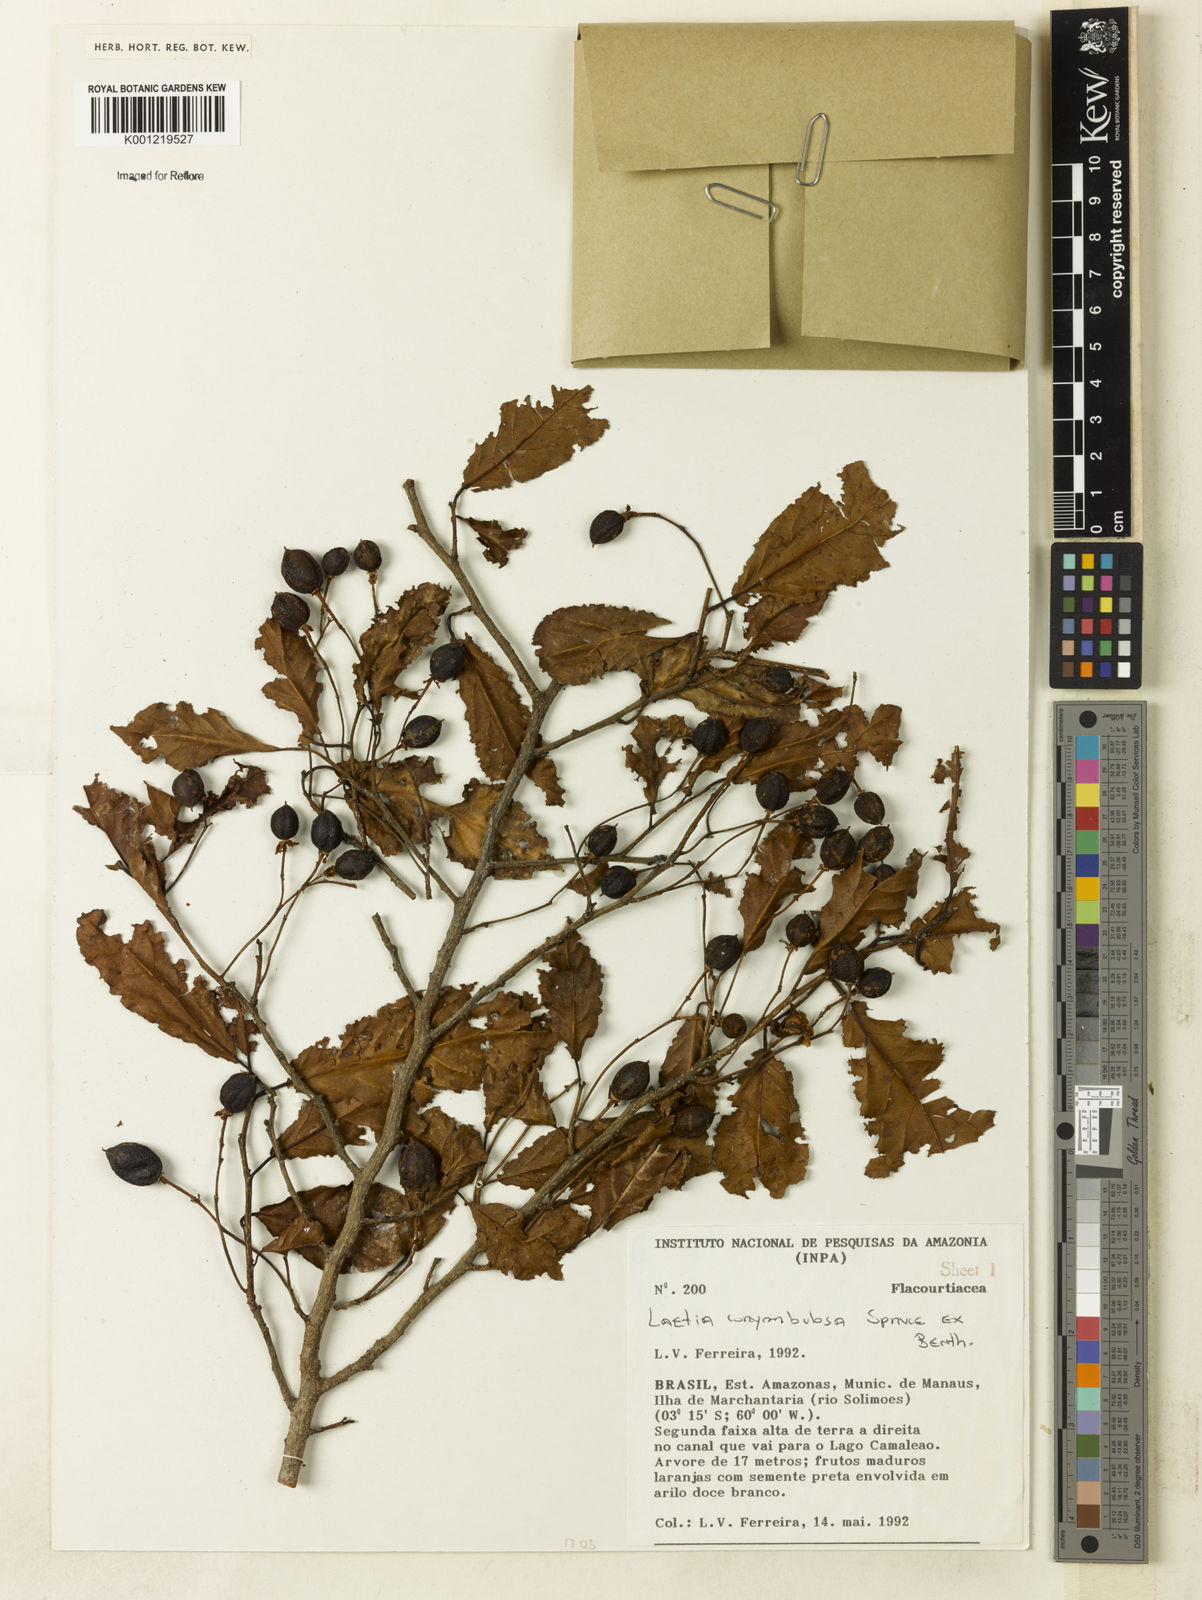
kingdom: Plantae
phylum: Tracheophyta
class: Magnoliopsida
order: Malpighiales
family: Salicaceae
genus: Casearia
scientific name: Casearia corymbulosa
